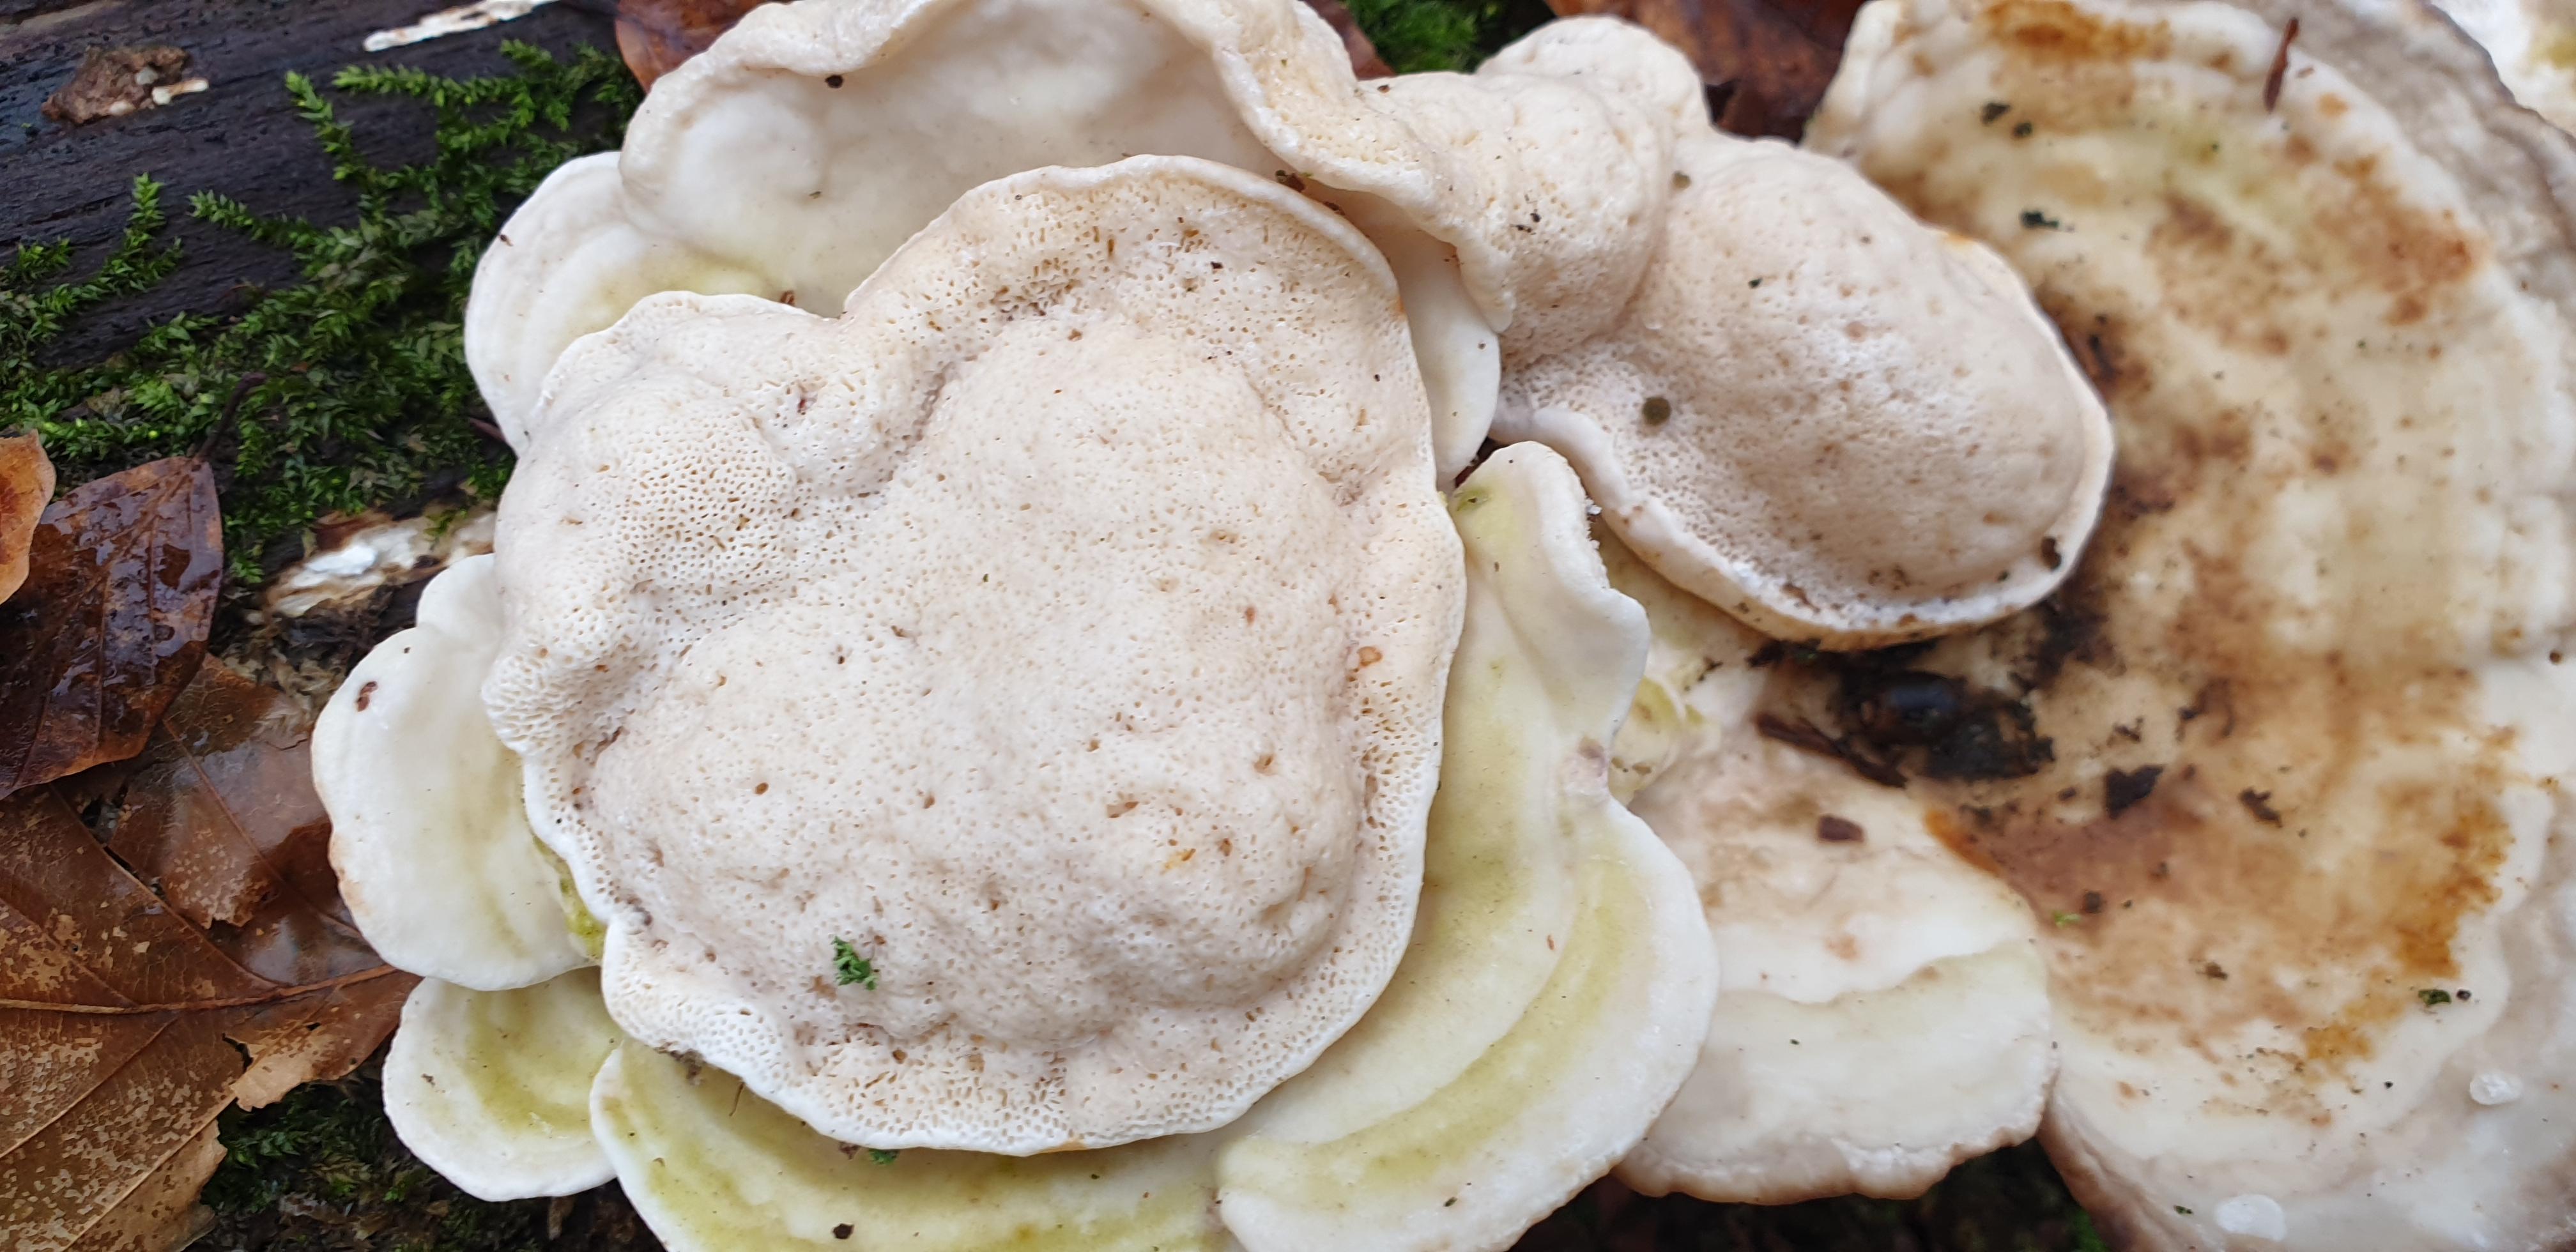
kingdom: Fungi
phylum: Basidiomycota
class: Agaricomycetes
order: Polyporales
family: Polyporaceae
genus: Trametes
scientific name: Trametes gibbosa
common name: puklet læderporesvamp
